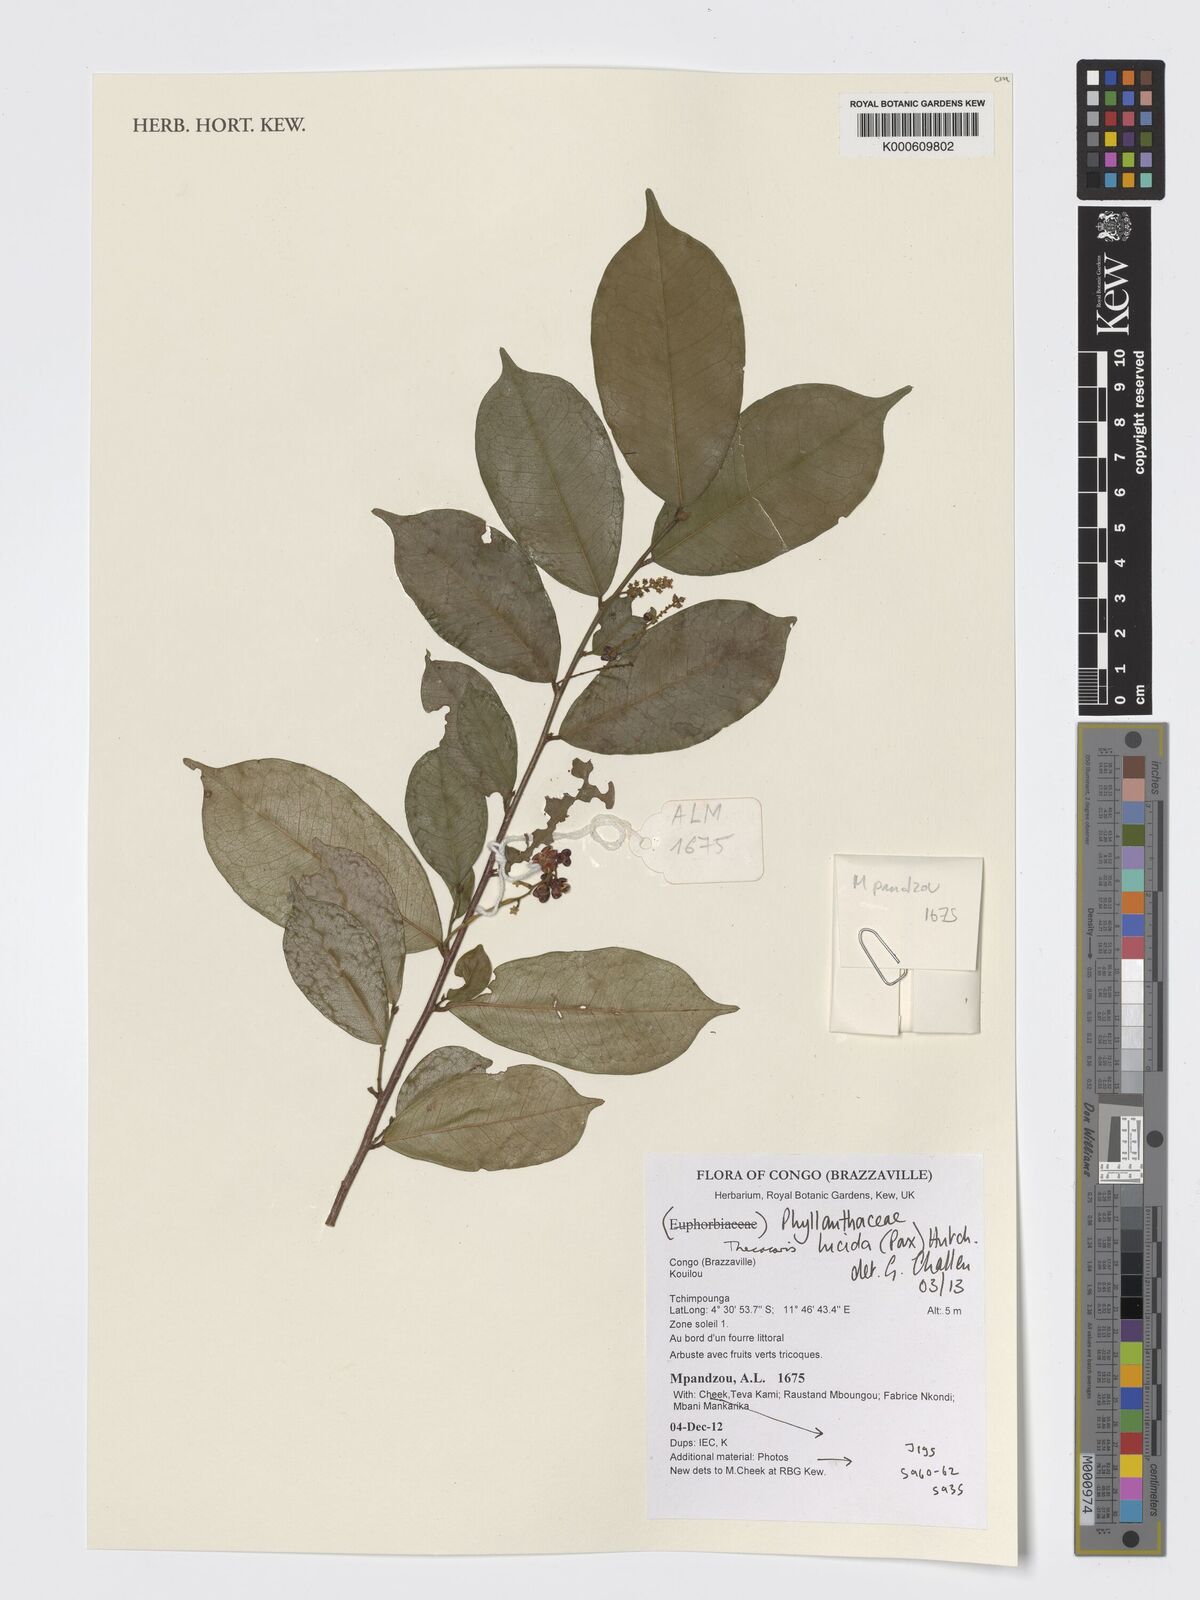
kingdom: Plantae
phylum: Tracheophyta
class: Magnoliopsida
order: Malpighiales
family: Phyllanthaceae
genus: Thecacoris
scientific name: Thecacoris lucida
